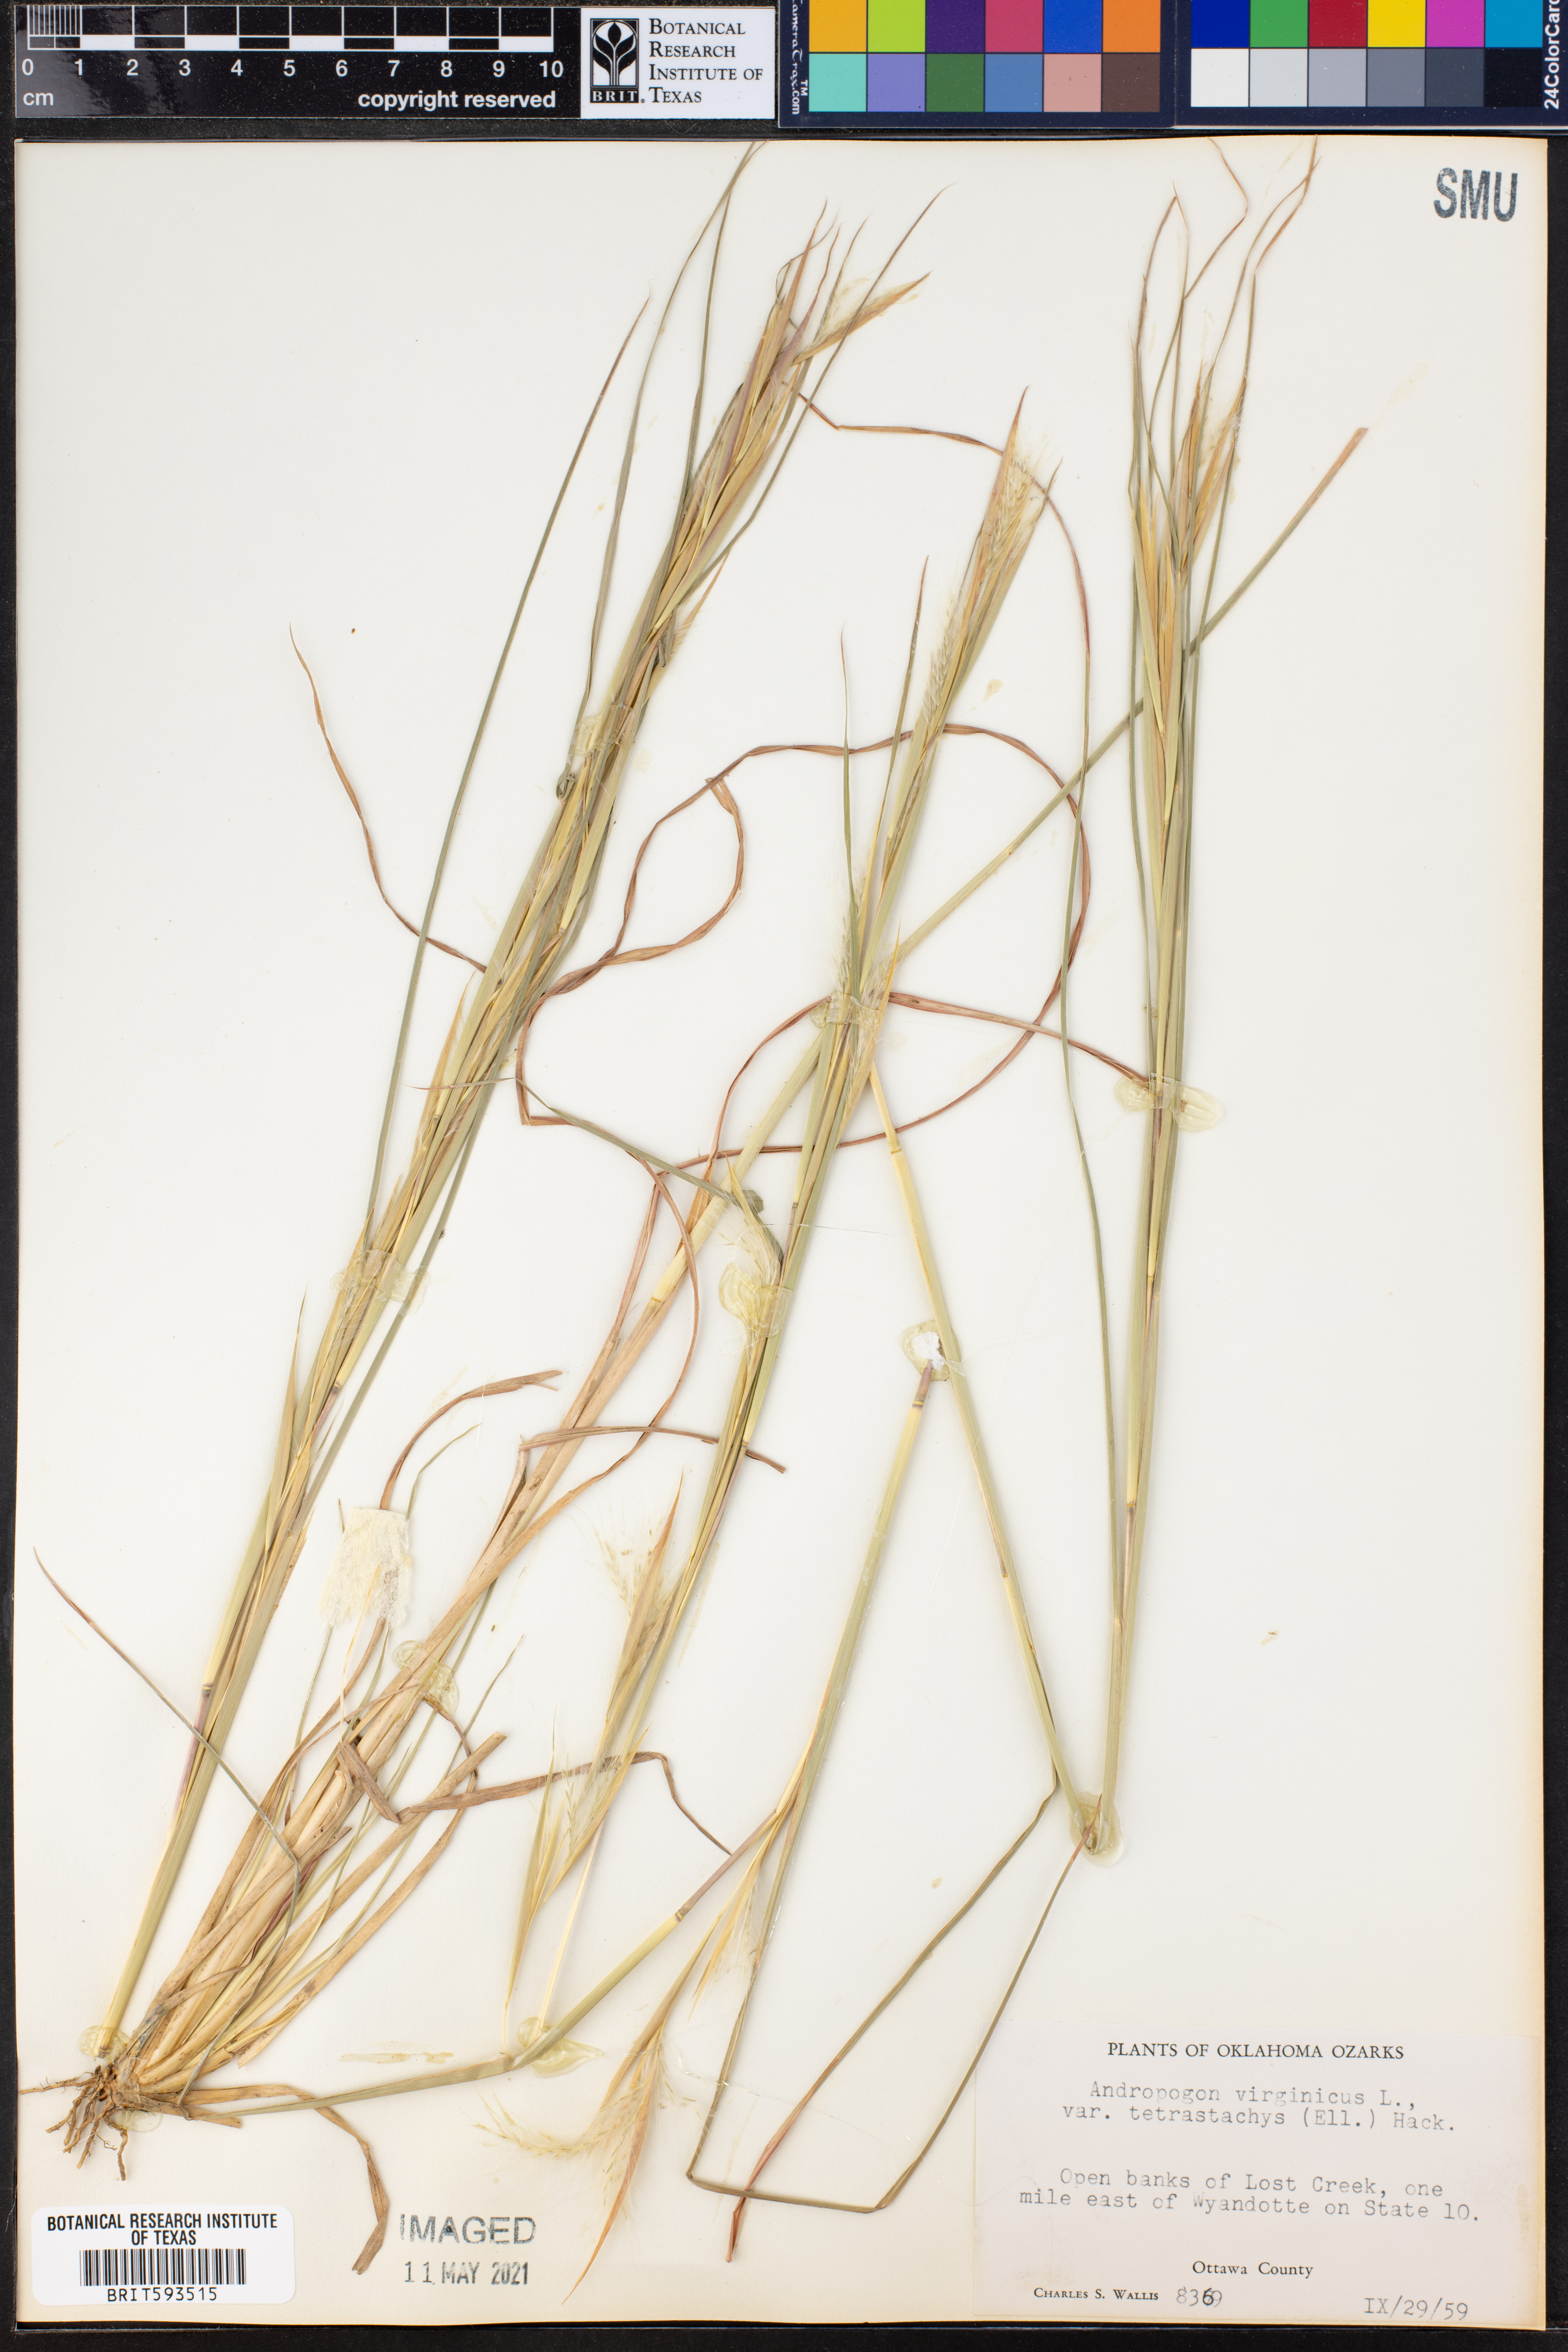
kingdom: Plantae
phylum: Tracheophyta
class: Liliopsida
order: Poales
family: Poaceae
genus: Andropogon
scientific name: Andropogon virginicus
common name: Broomsedge bluestem
